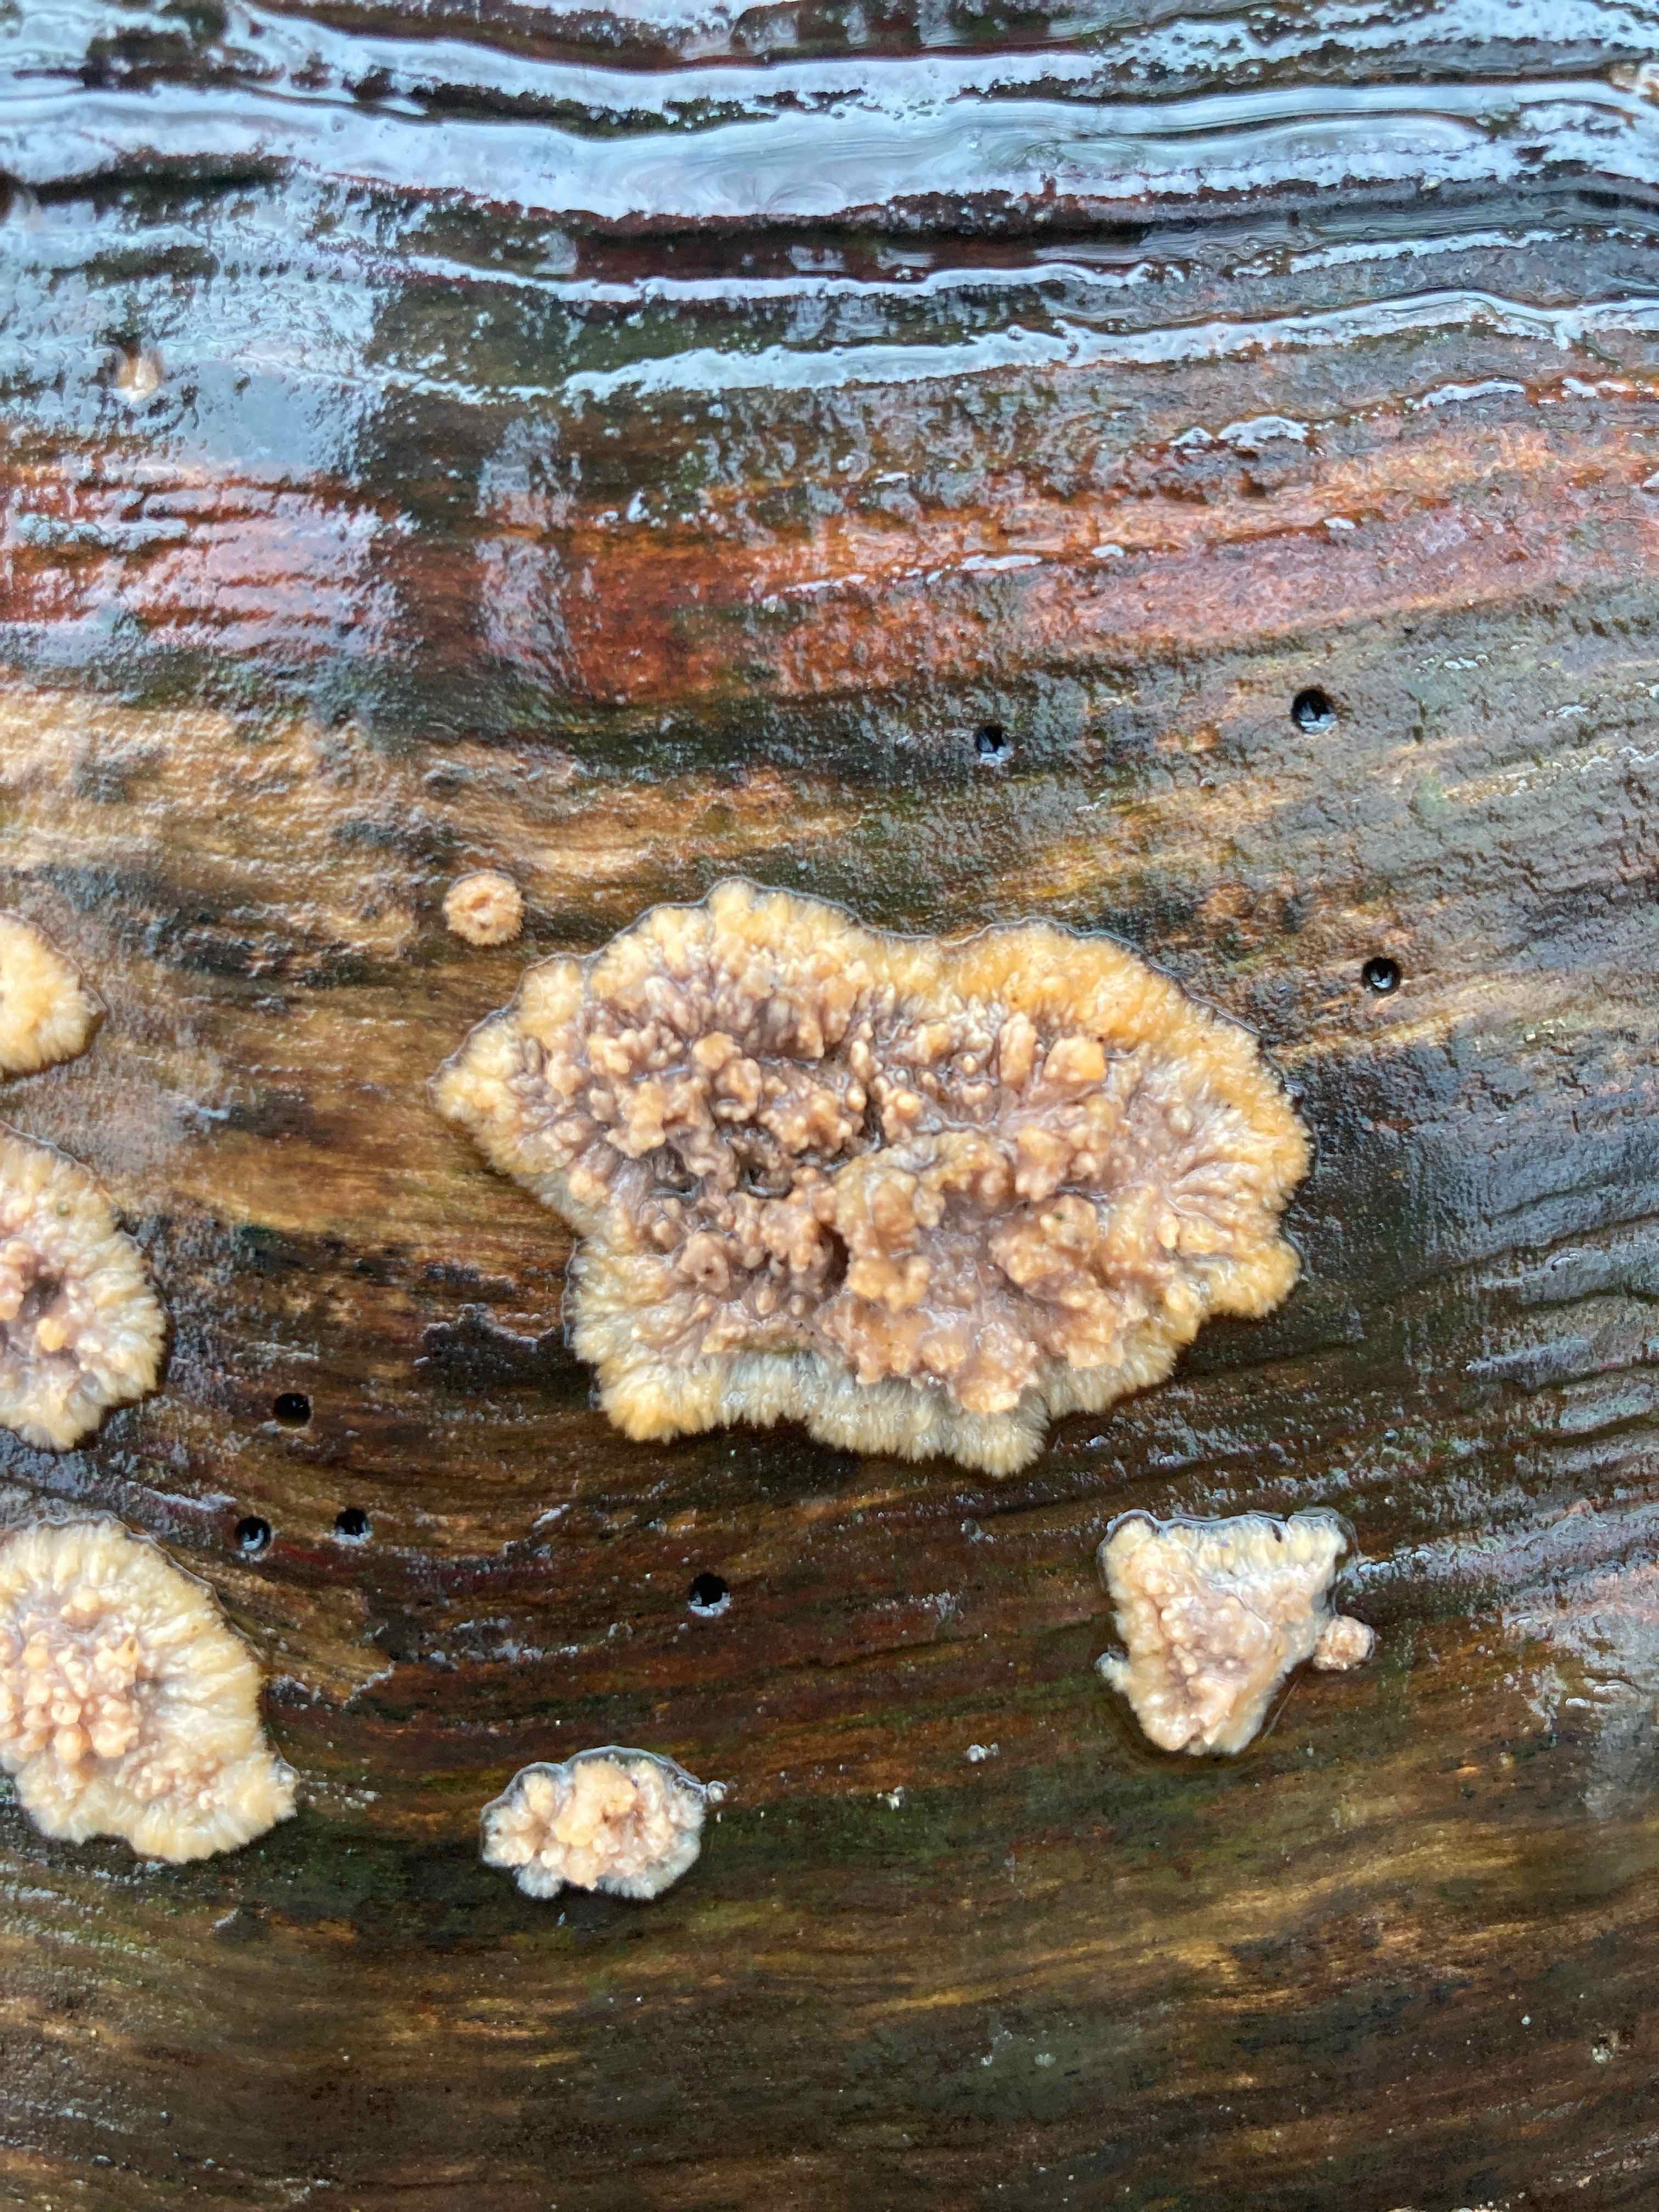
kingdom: Fungi
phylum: Basidiomycota
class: Agaricomycetes
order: Polyporales
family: Meruliaceae
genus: Phlebia
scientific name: Phlebia radiata
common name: stråle-åresvamp
